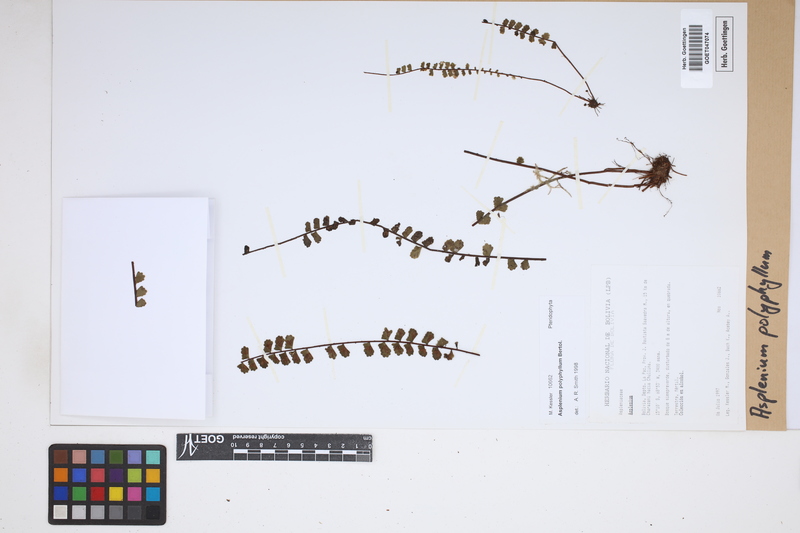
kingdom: Plantae
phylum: Tracheophyta
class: Polypodiopsida
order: Polypodiales
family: Aspleniaceae
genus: Asplenium
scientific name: Asplenium polyphyllum
